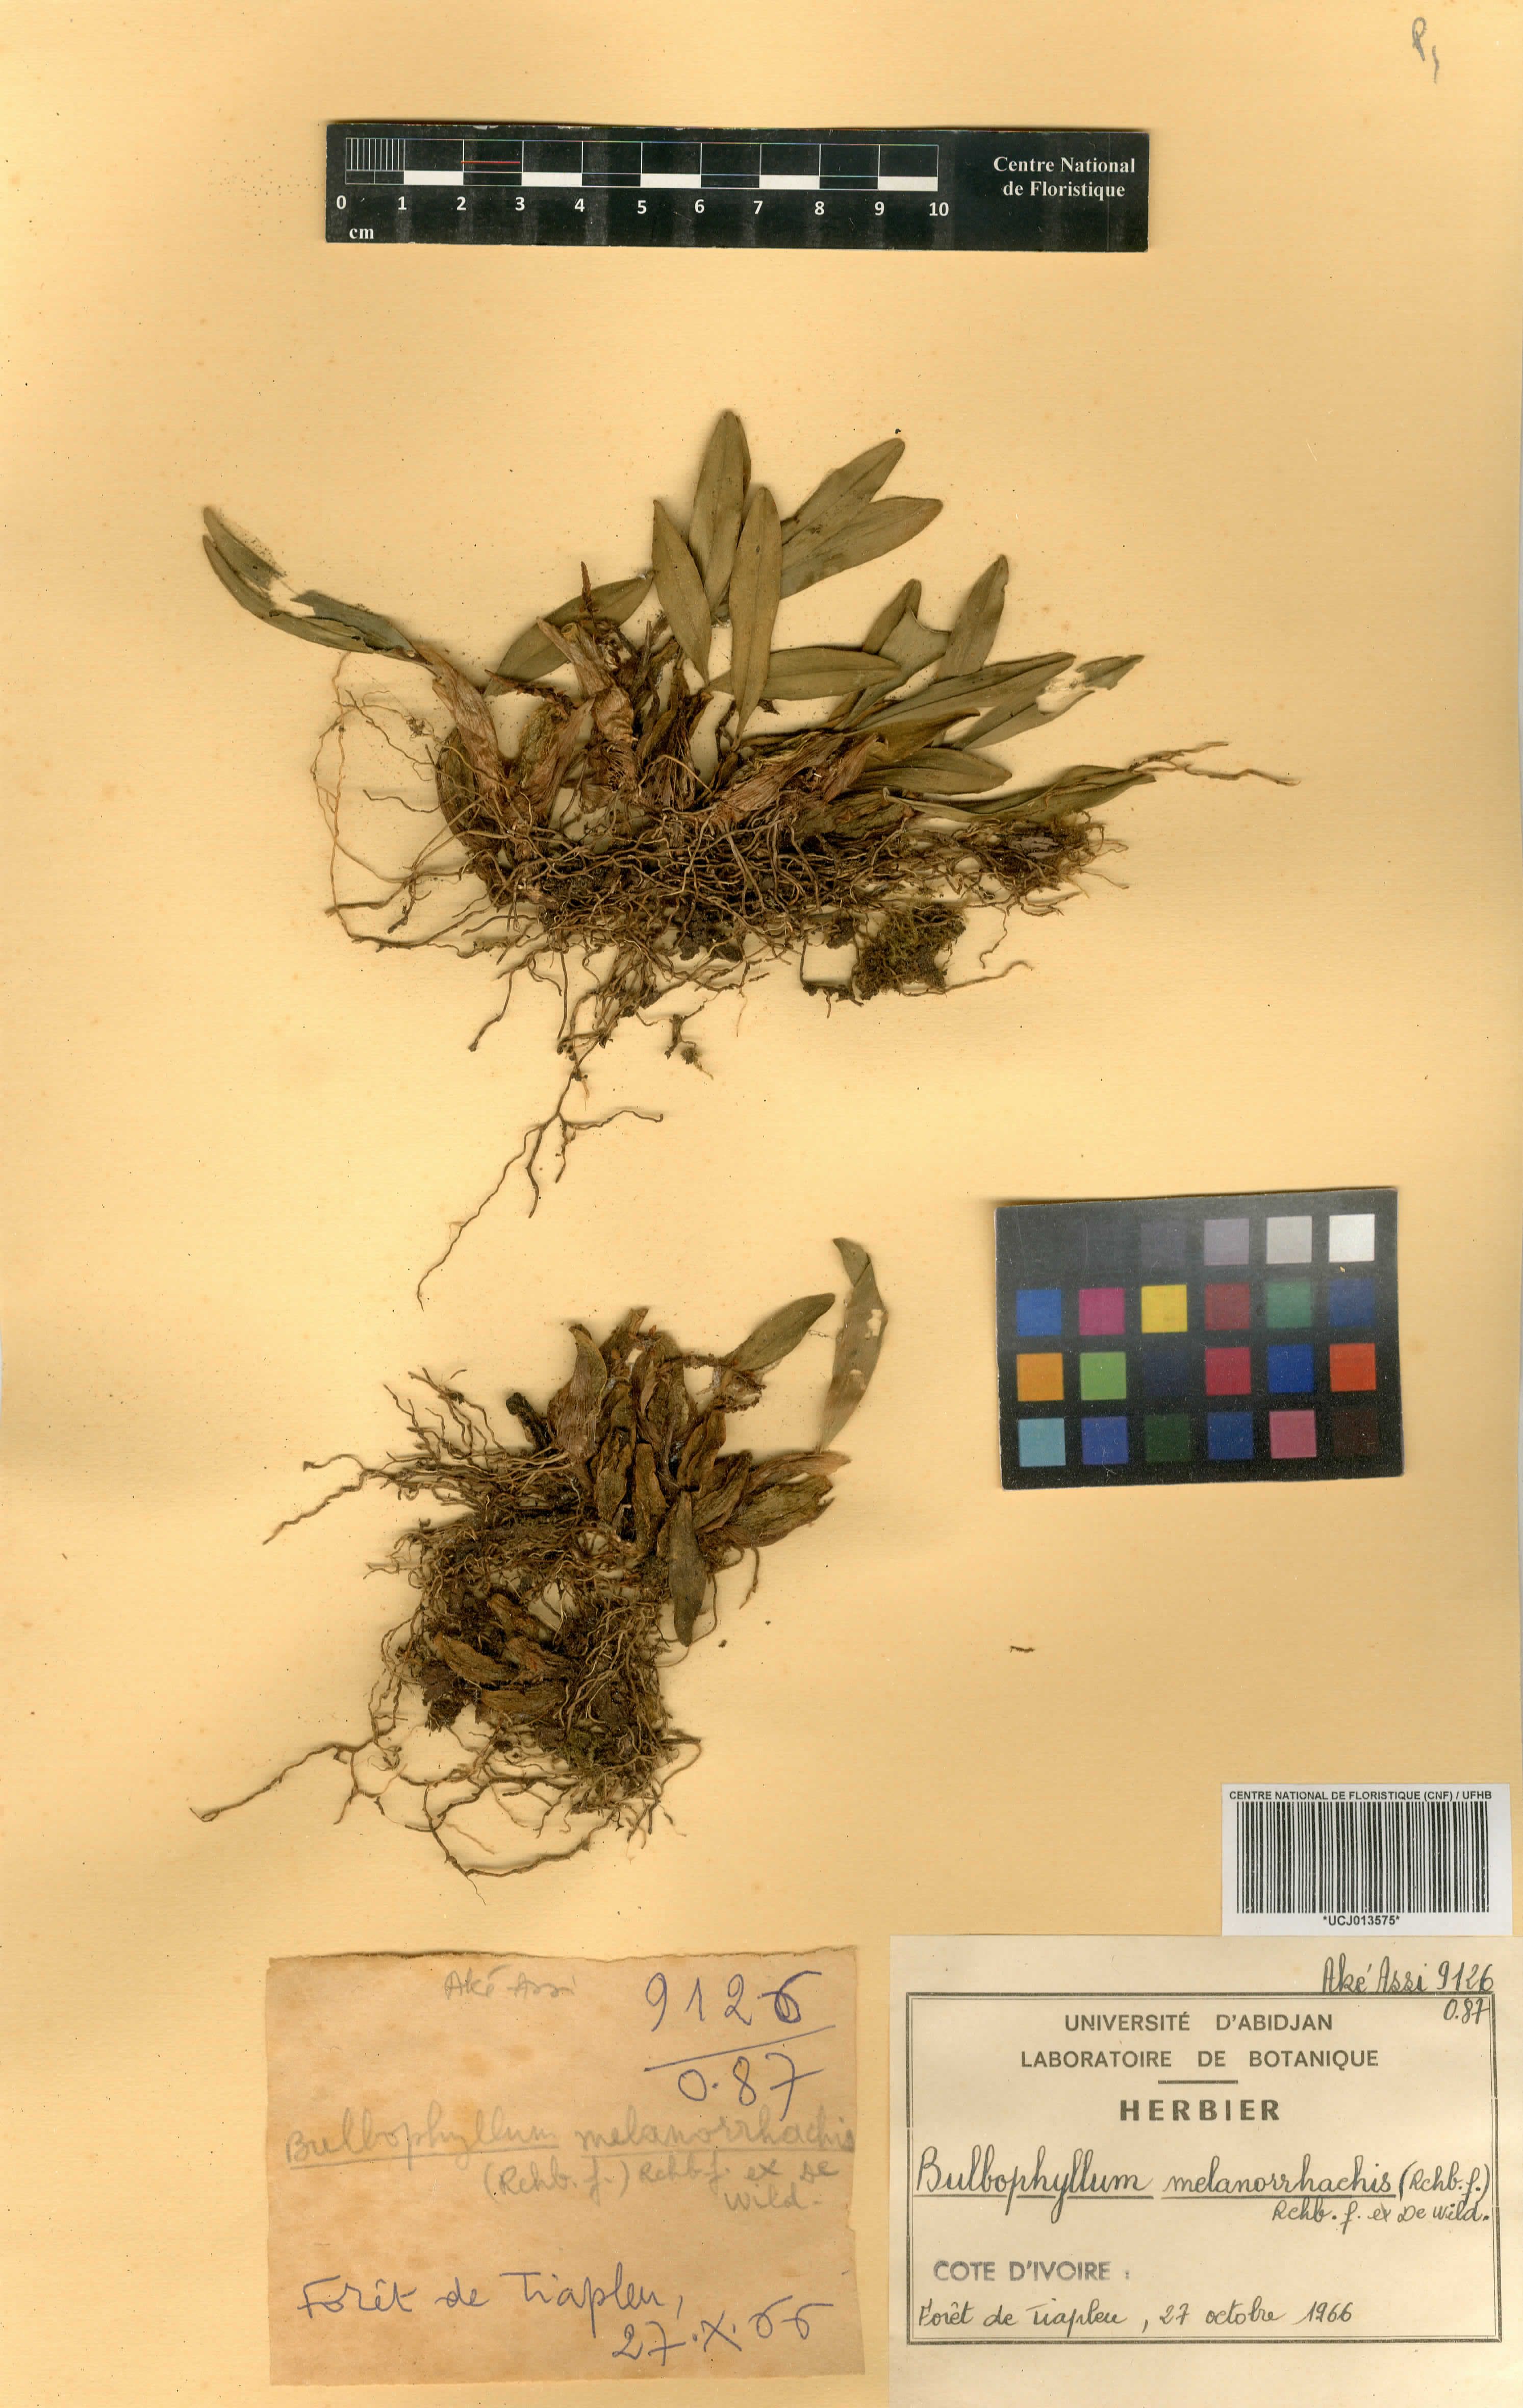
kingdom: Plantae
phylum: Tracheophyta
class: Liliopsida
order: Asparagales
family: Orchidaceae
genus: Bulbophyllum
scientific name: Bulbophyllum falcatum
